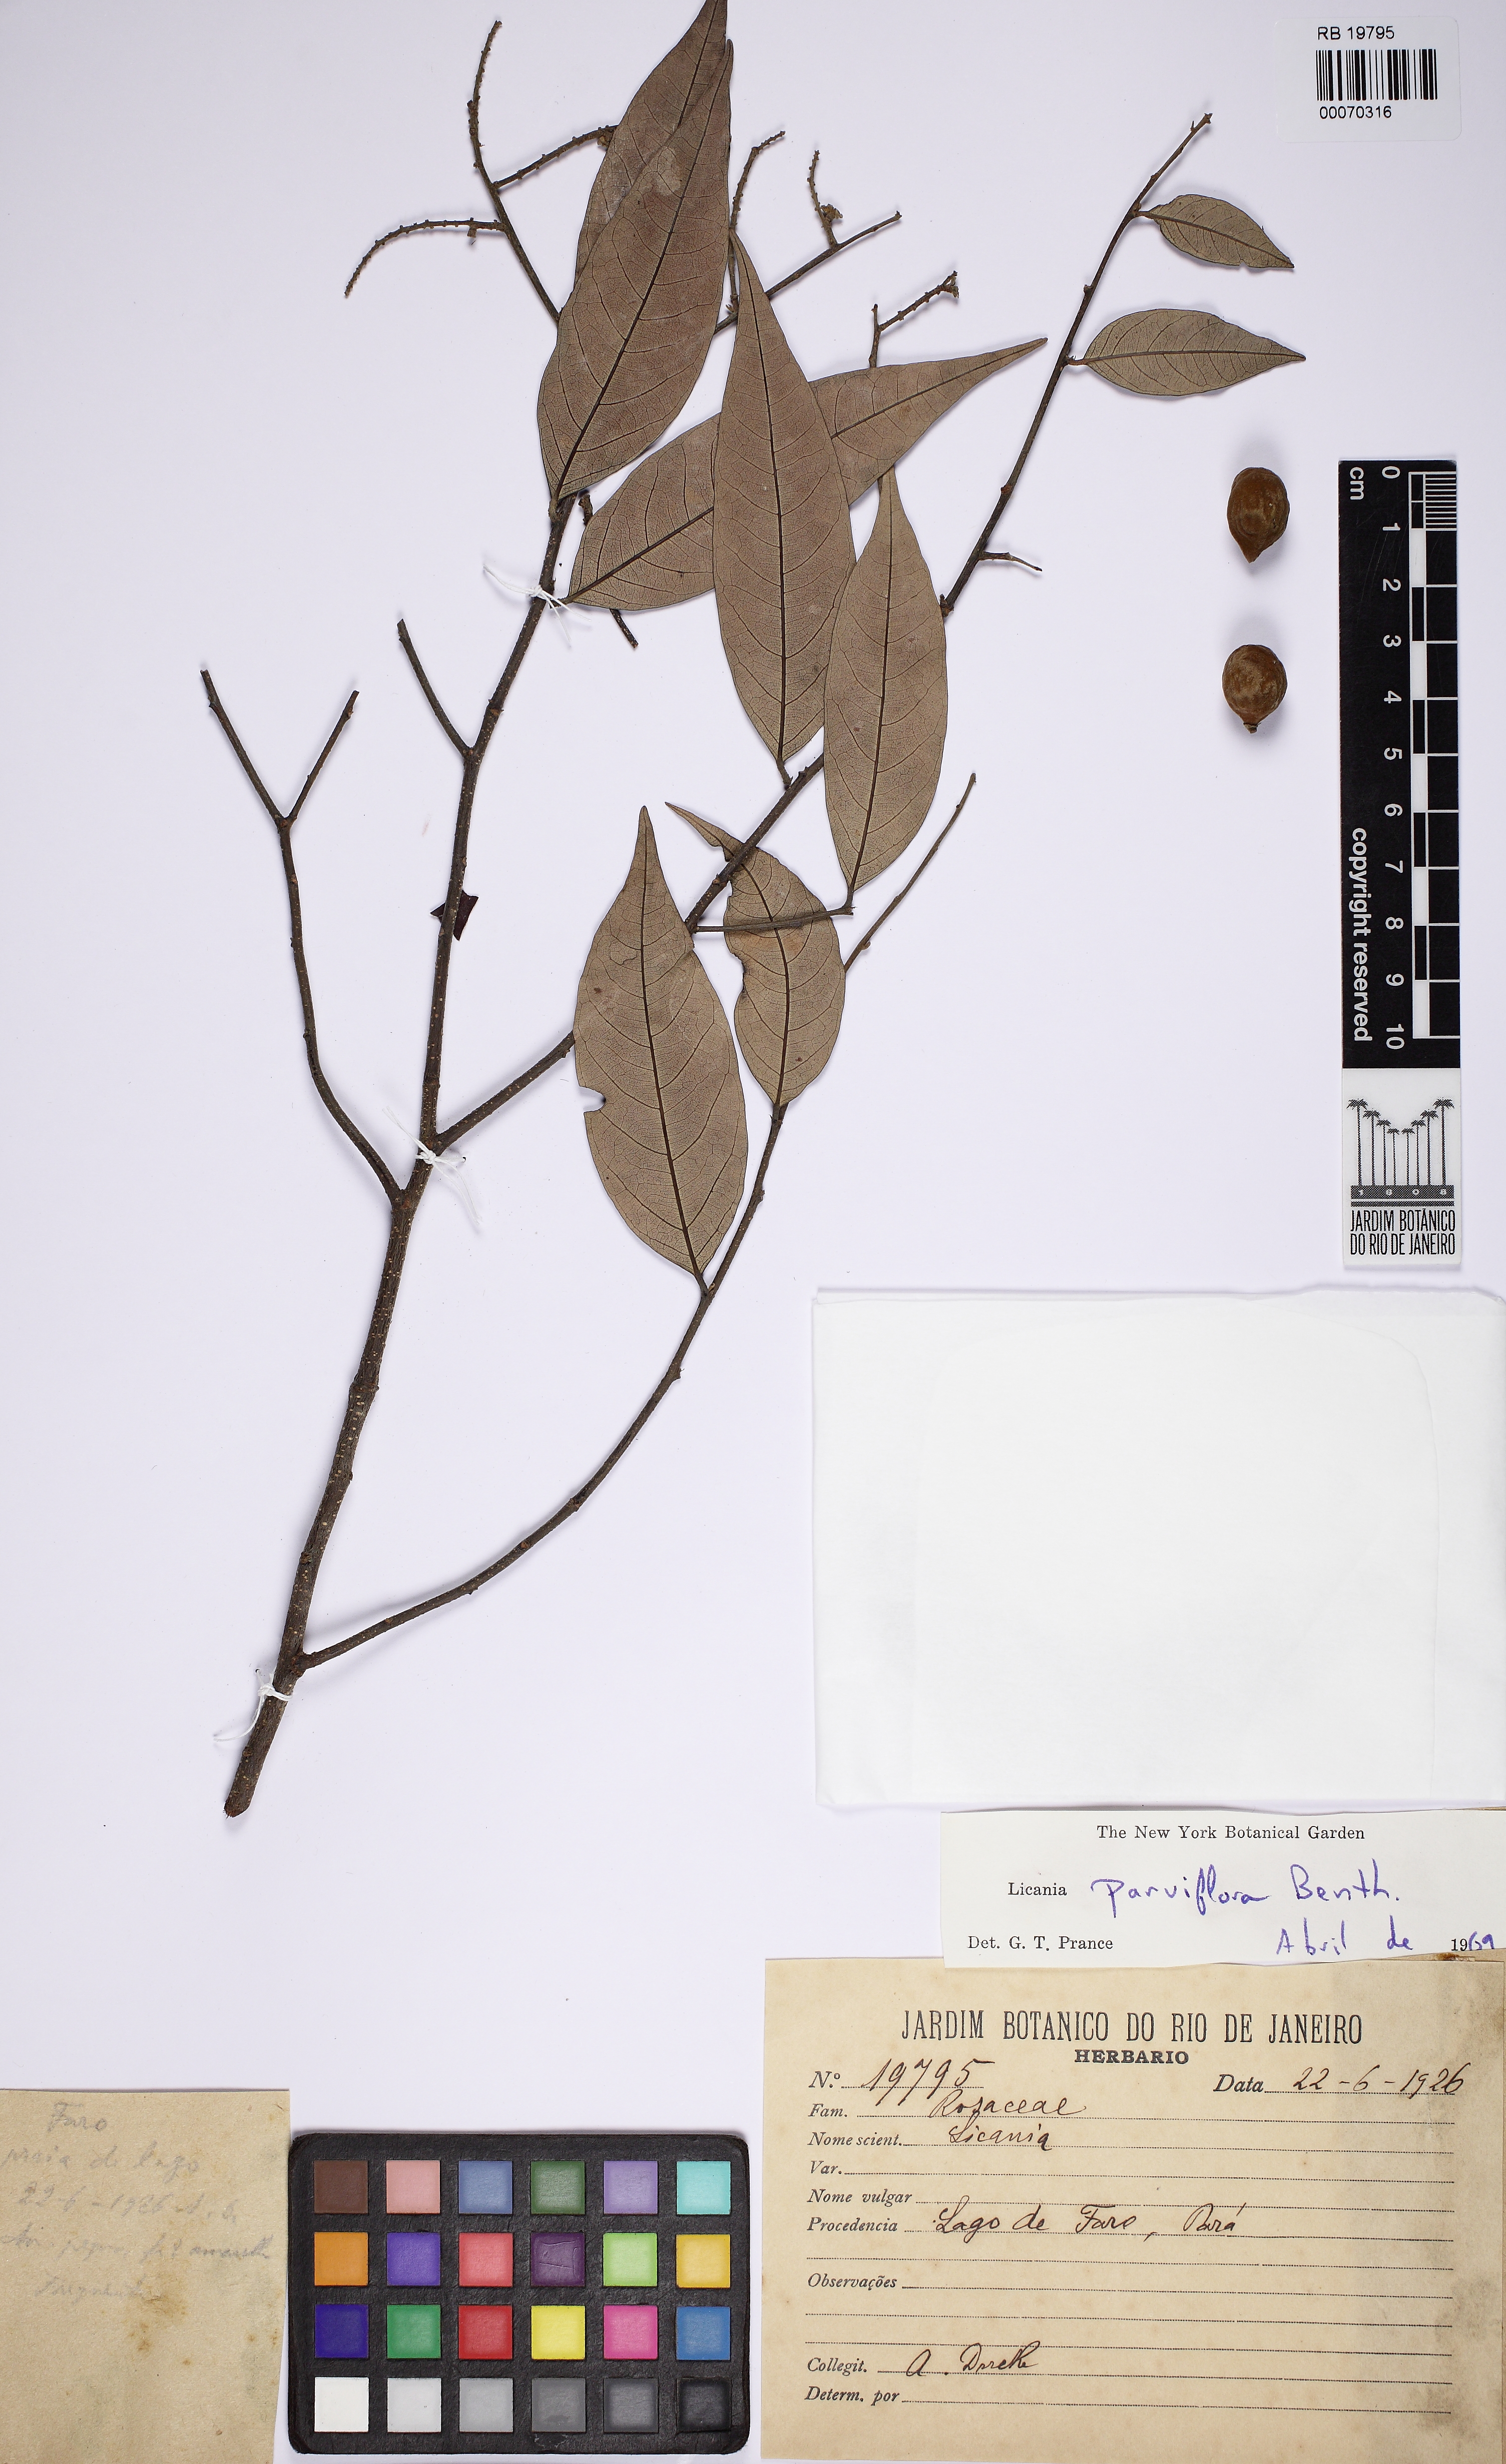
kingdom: Plantae
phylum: Tracheophyta
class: Magnoliopsida
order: Malpighiales
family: Chrysobalanaceae
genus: Leptobalanus
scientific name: Leptobalanus parviflorus
